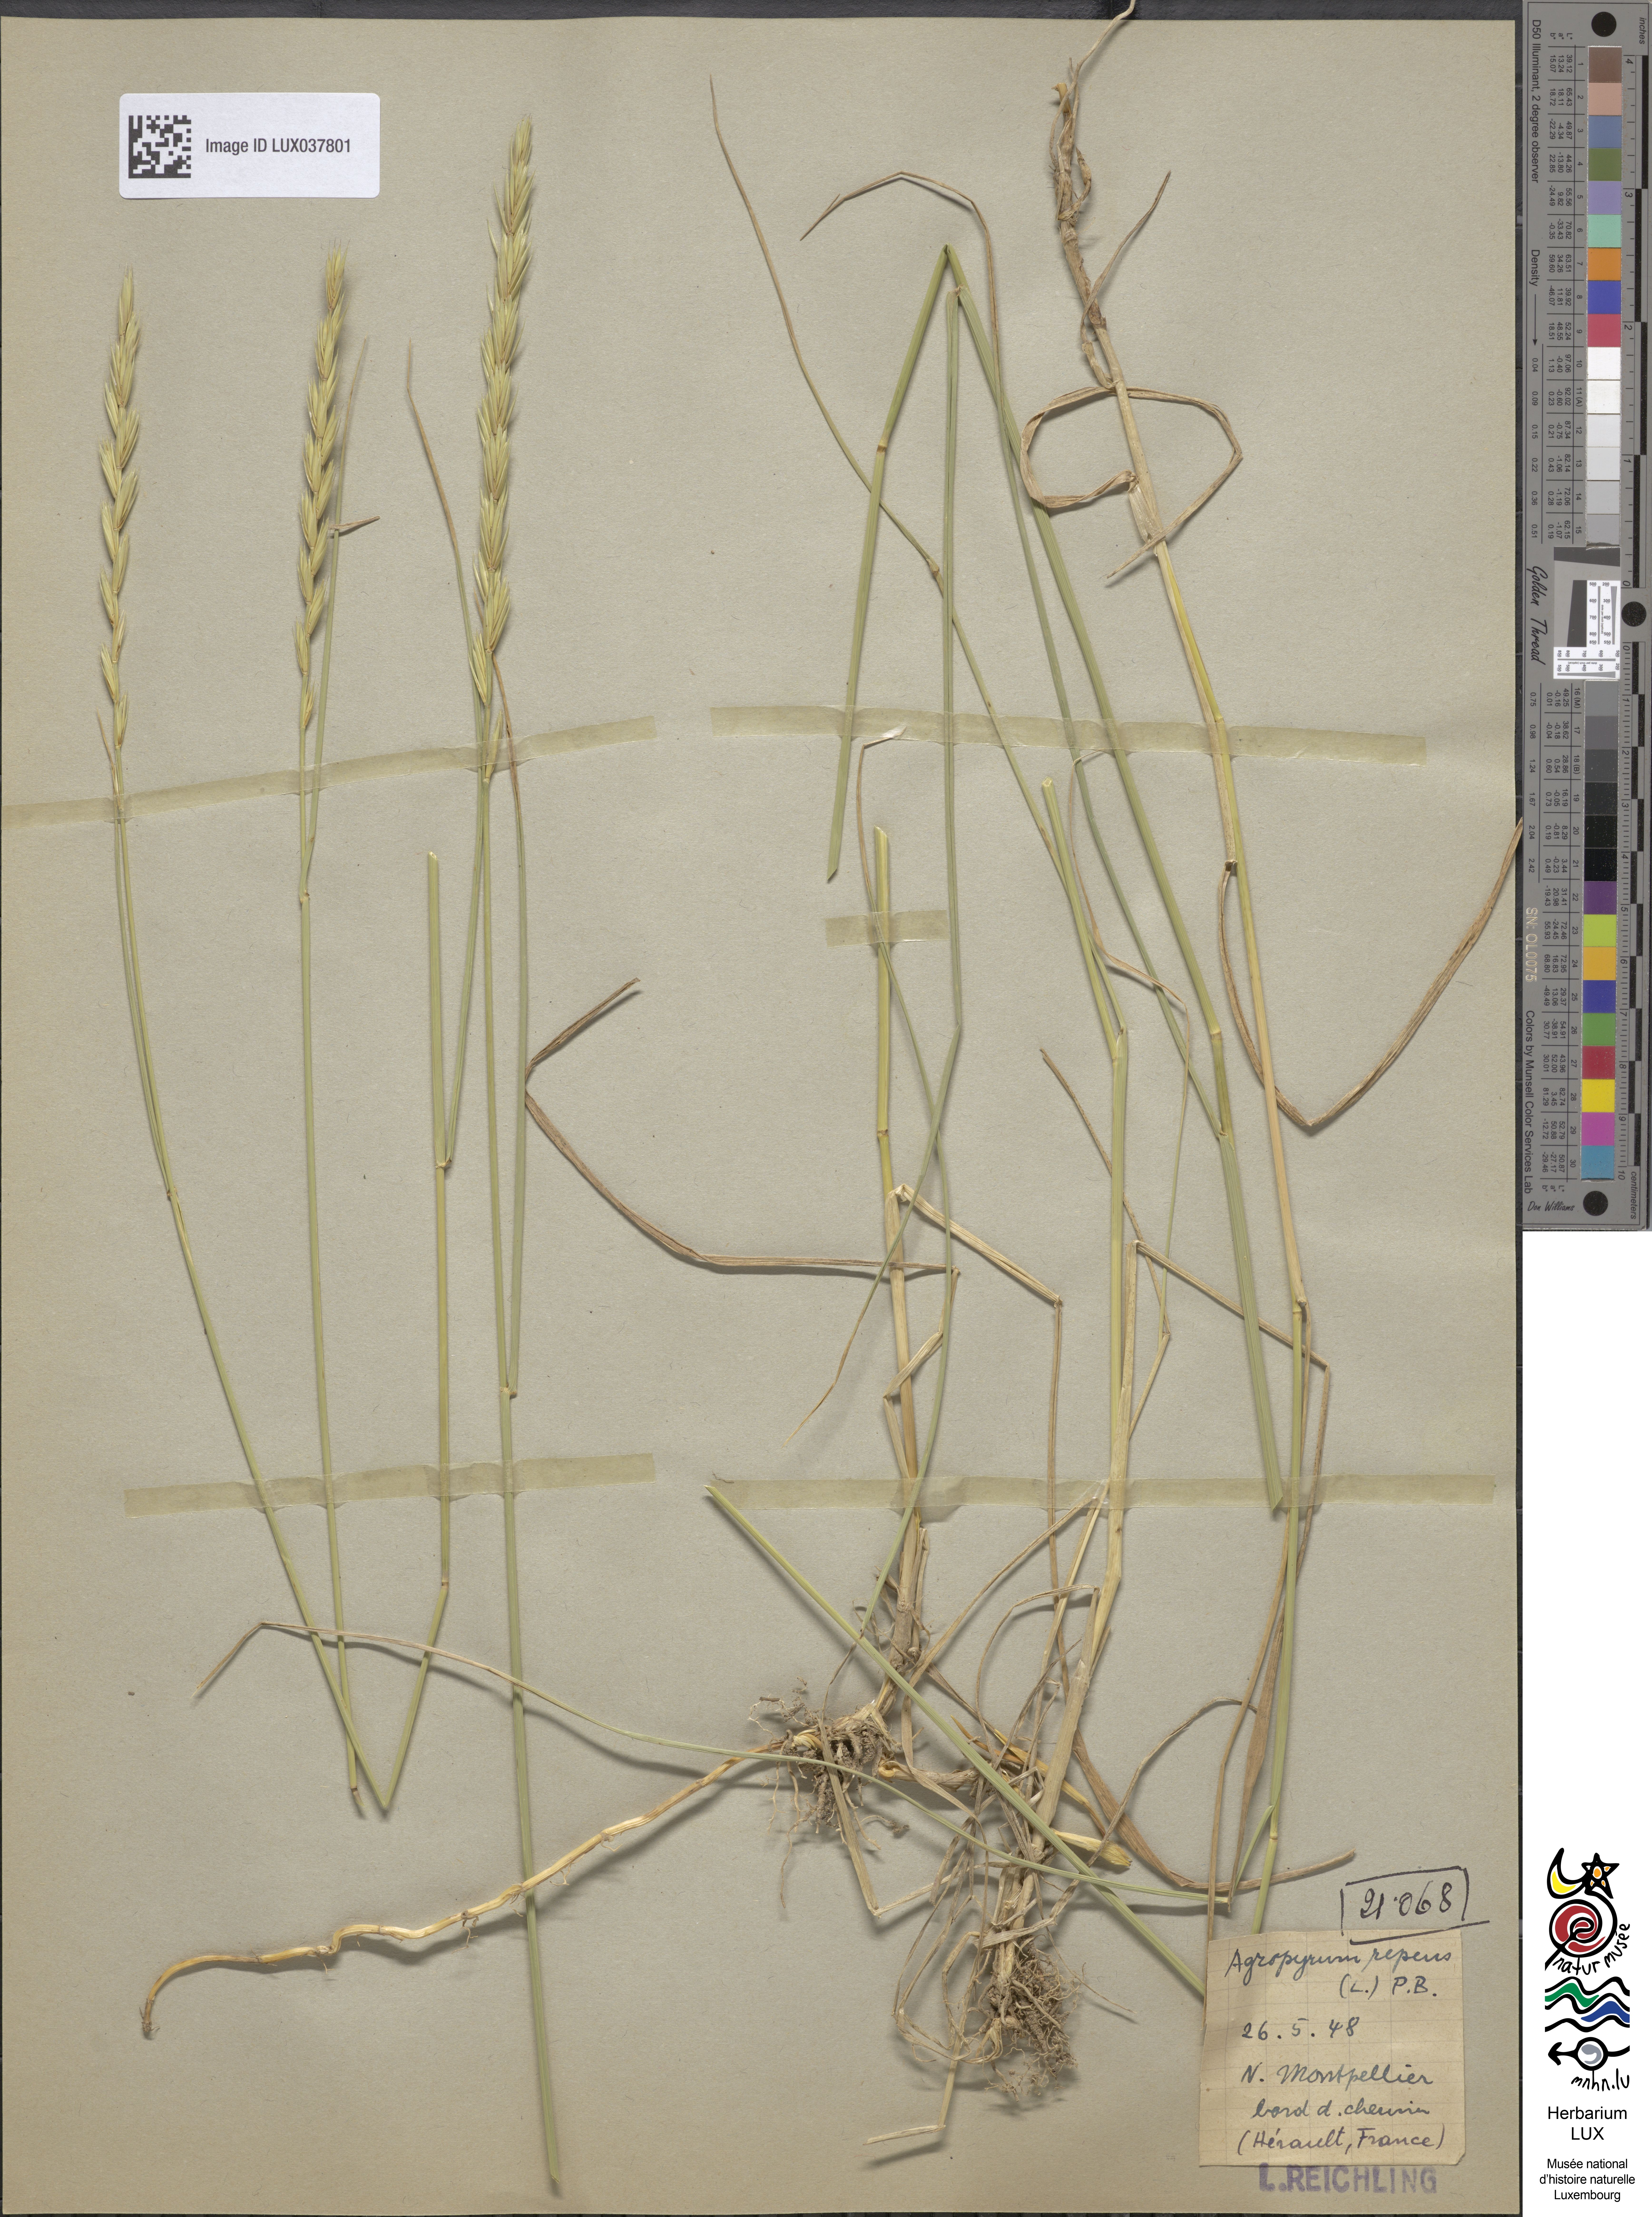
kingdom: Plantae
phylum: Tracheophyta
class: Liliopsida
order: Poales
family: Poaceae
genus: Elymus
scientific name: Elymus repens
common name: Quackgrass
